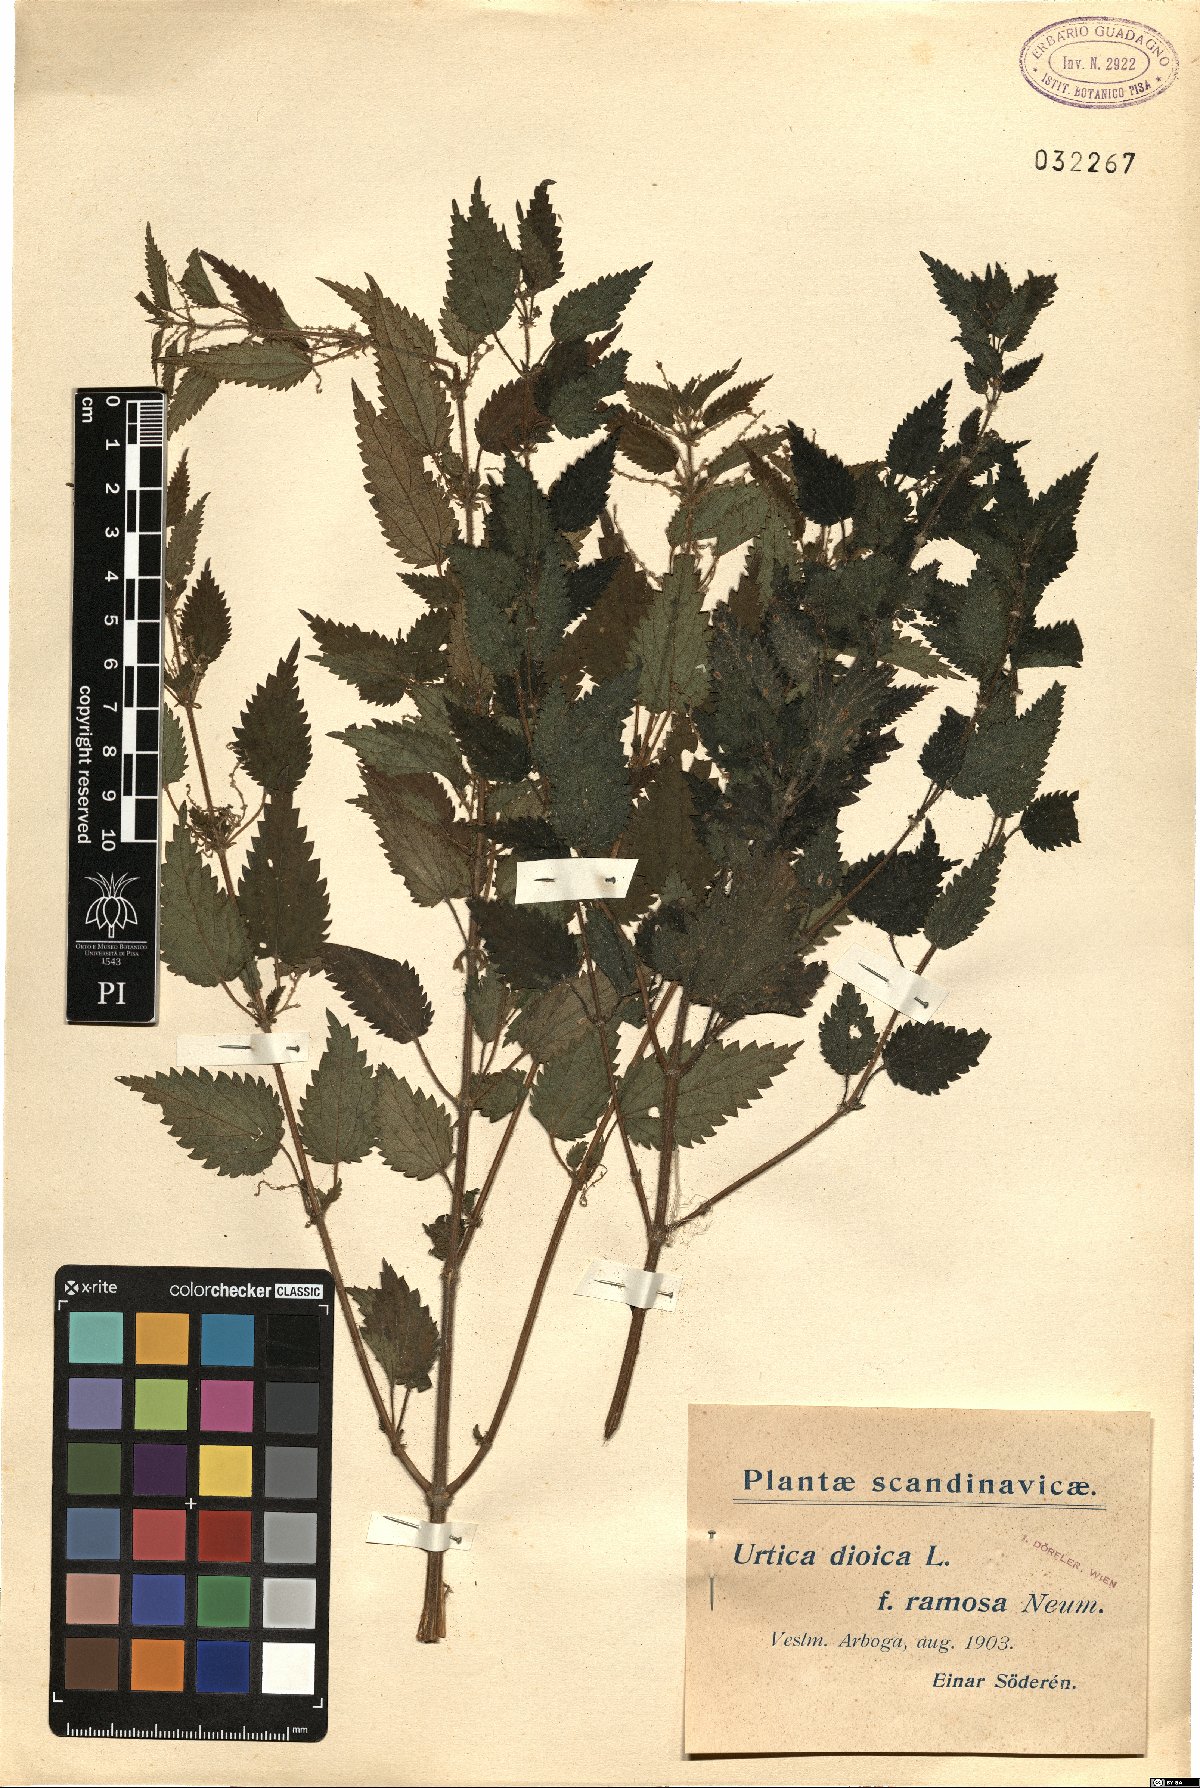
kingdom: Plantae
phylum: Tracheophyta
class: Magnoliopsida
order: Rosales
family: Urticaceae
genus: Urtica
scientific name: Urtica dioica
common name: Common nettle
